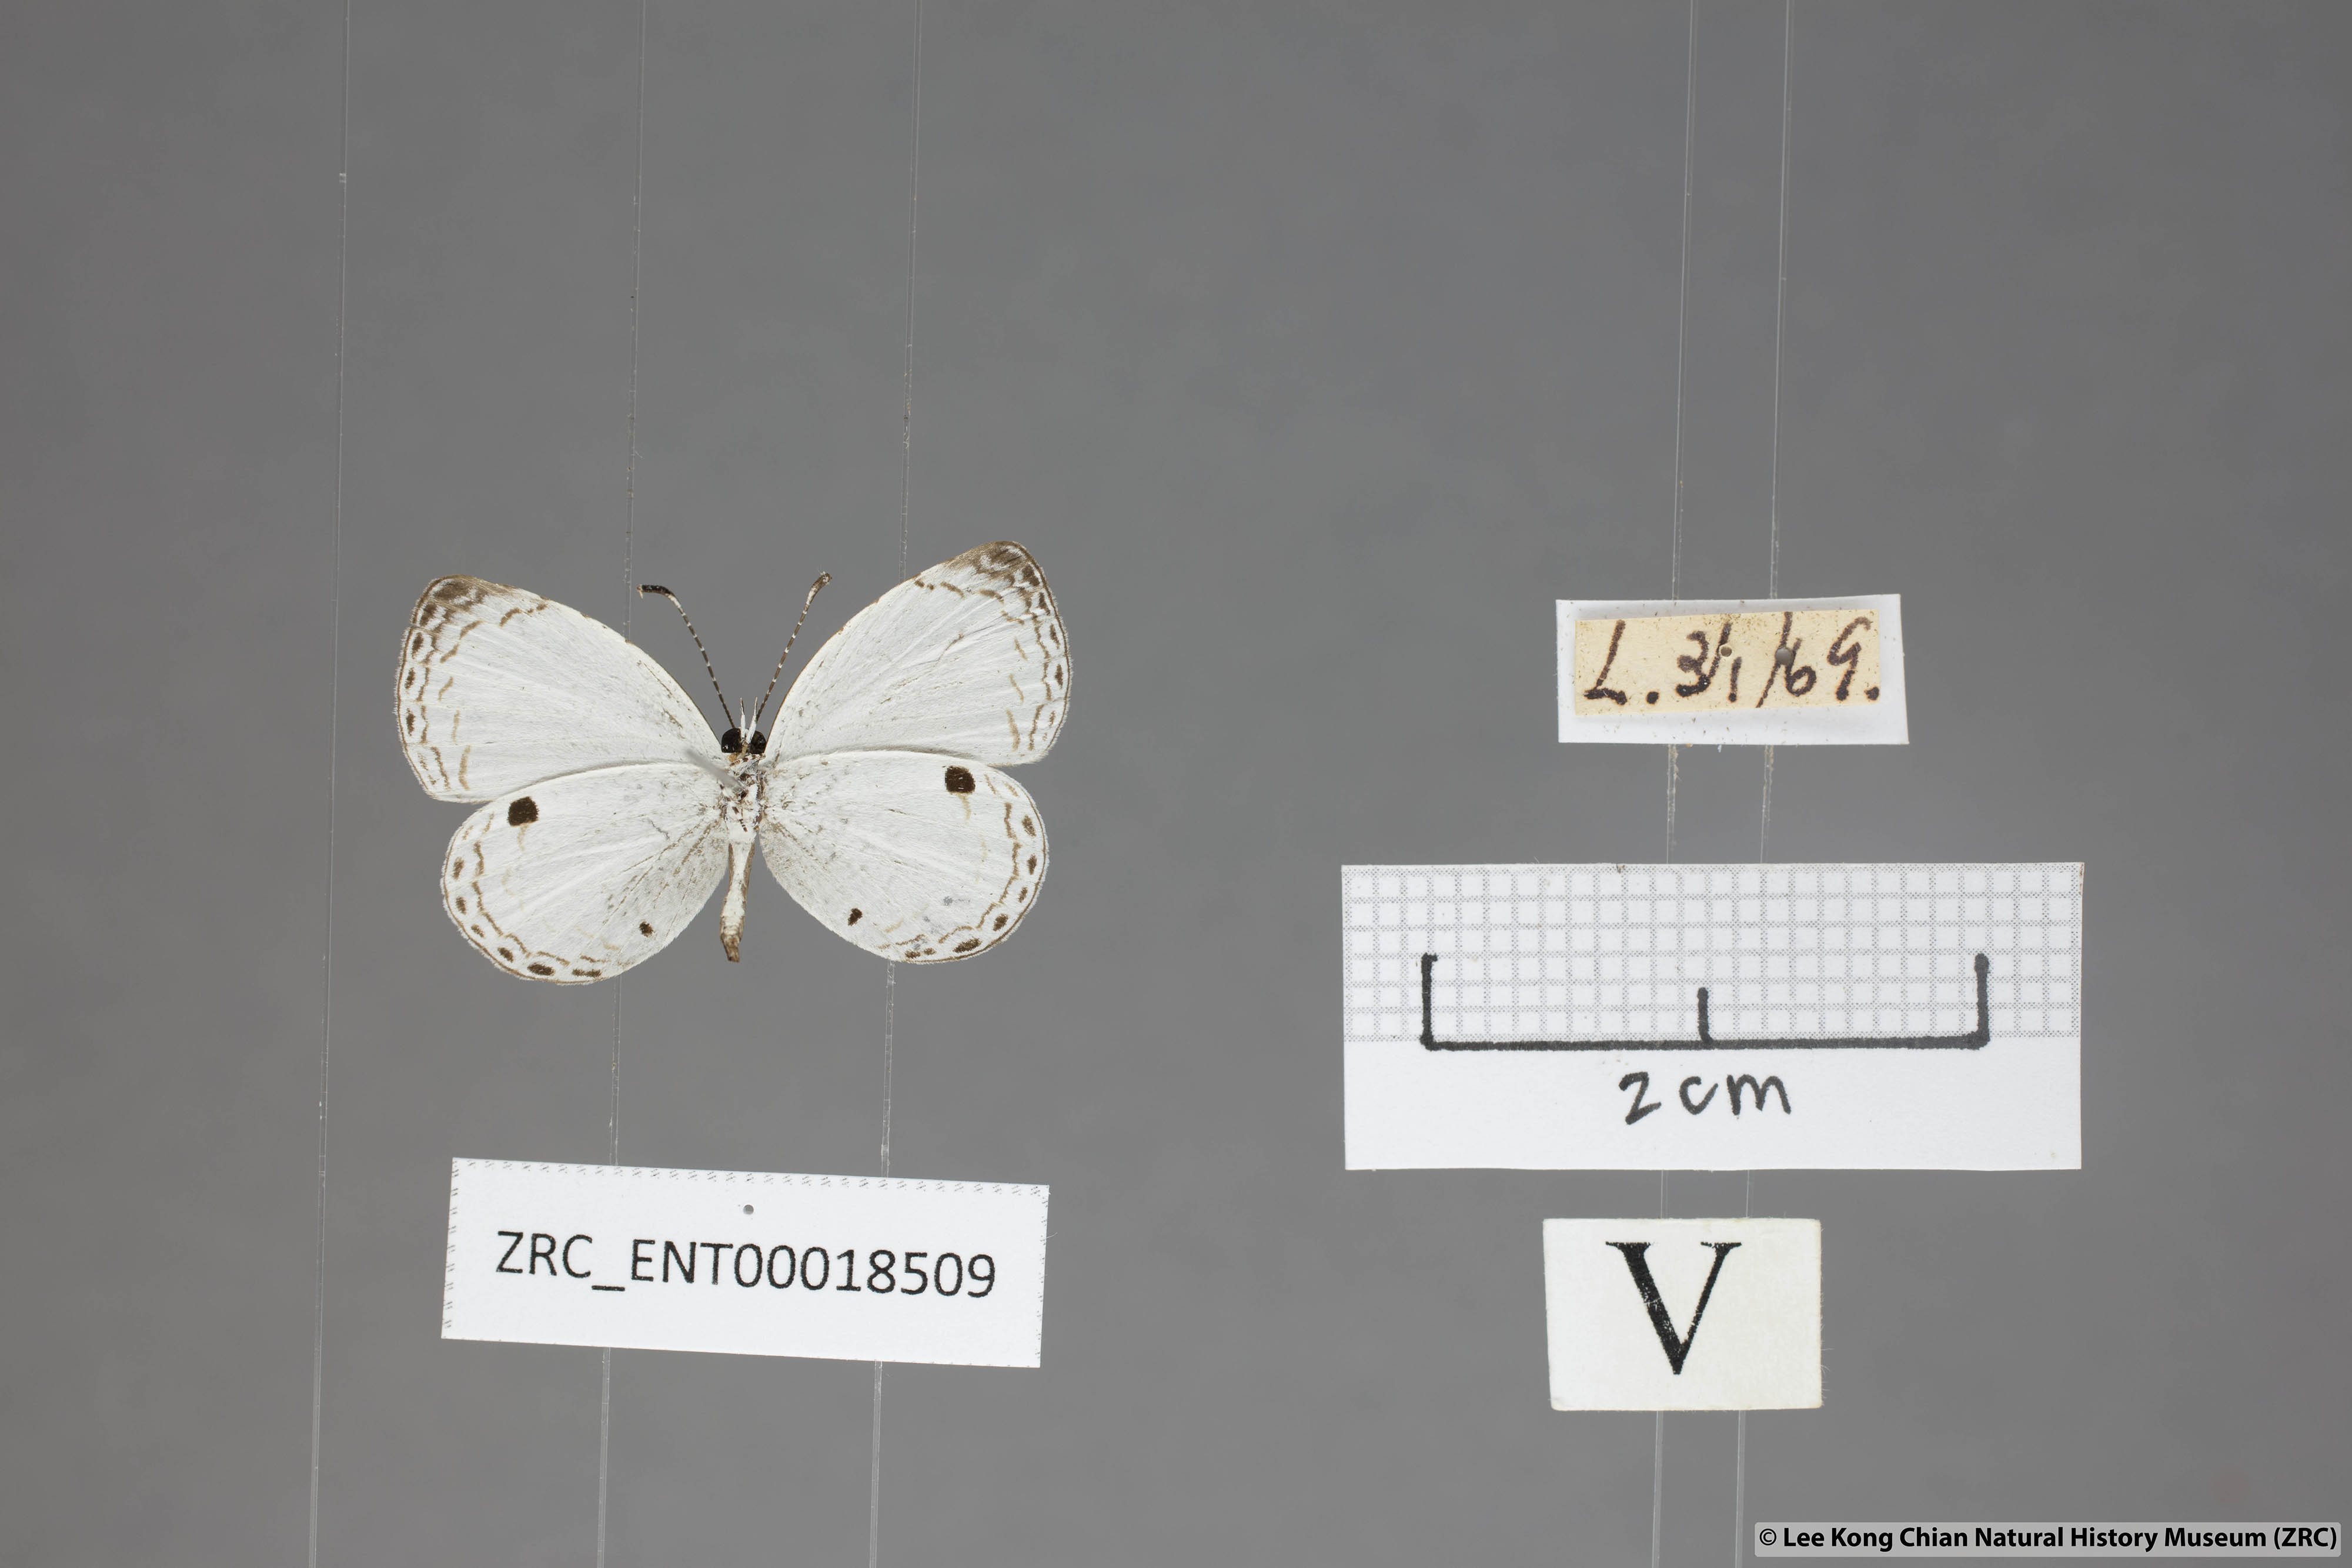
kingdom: Animalia
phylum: Arthropoda
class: Insecta
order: Lepidoptera
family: Lycaenidae
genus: Neopithecops
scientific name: Neopithecops zalmora
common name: Quaker
